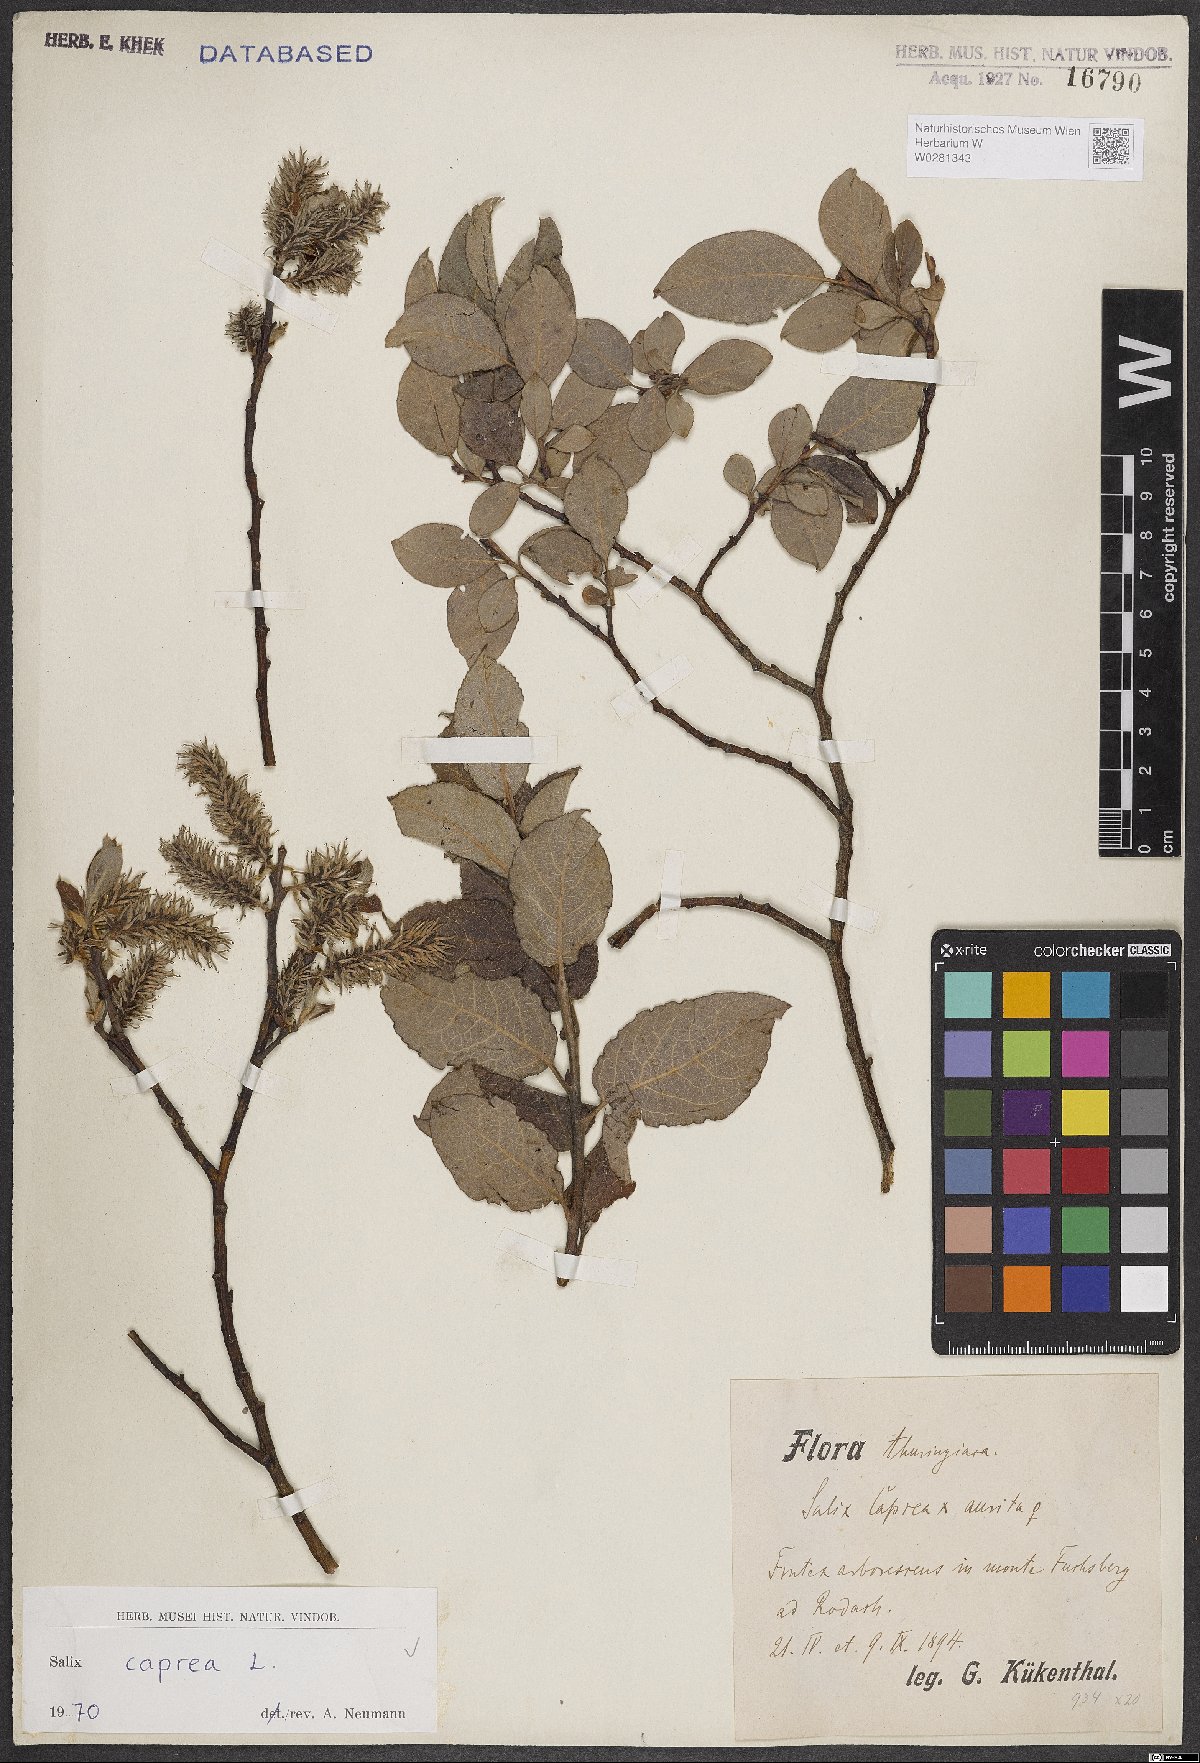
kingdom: Plantae
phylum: Tracheophyta
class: Magnoliopsida
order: Malpighiales
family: Salicaceae
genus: Salix
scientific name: Salix caprea
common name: Goat willow
